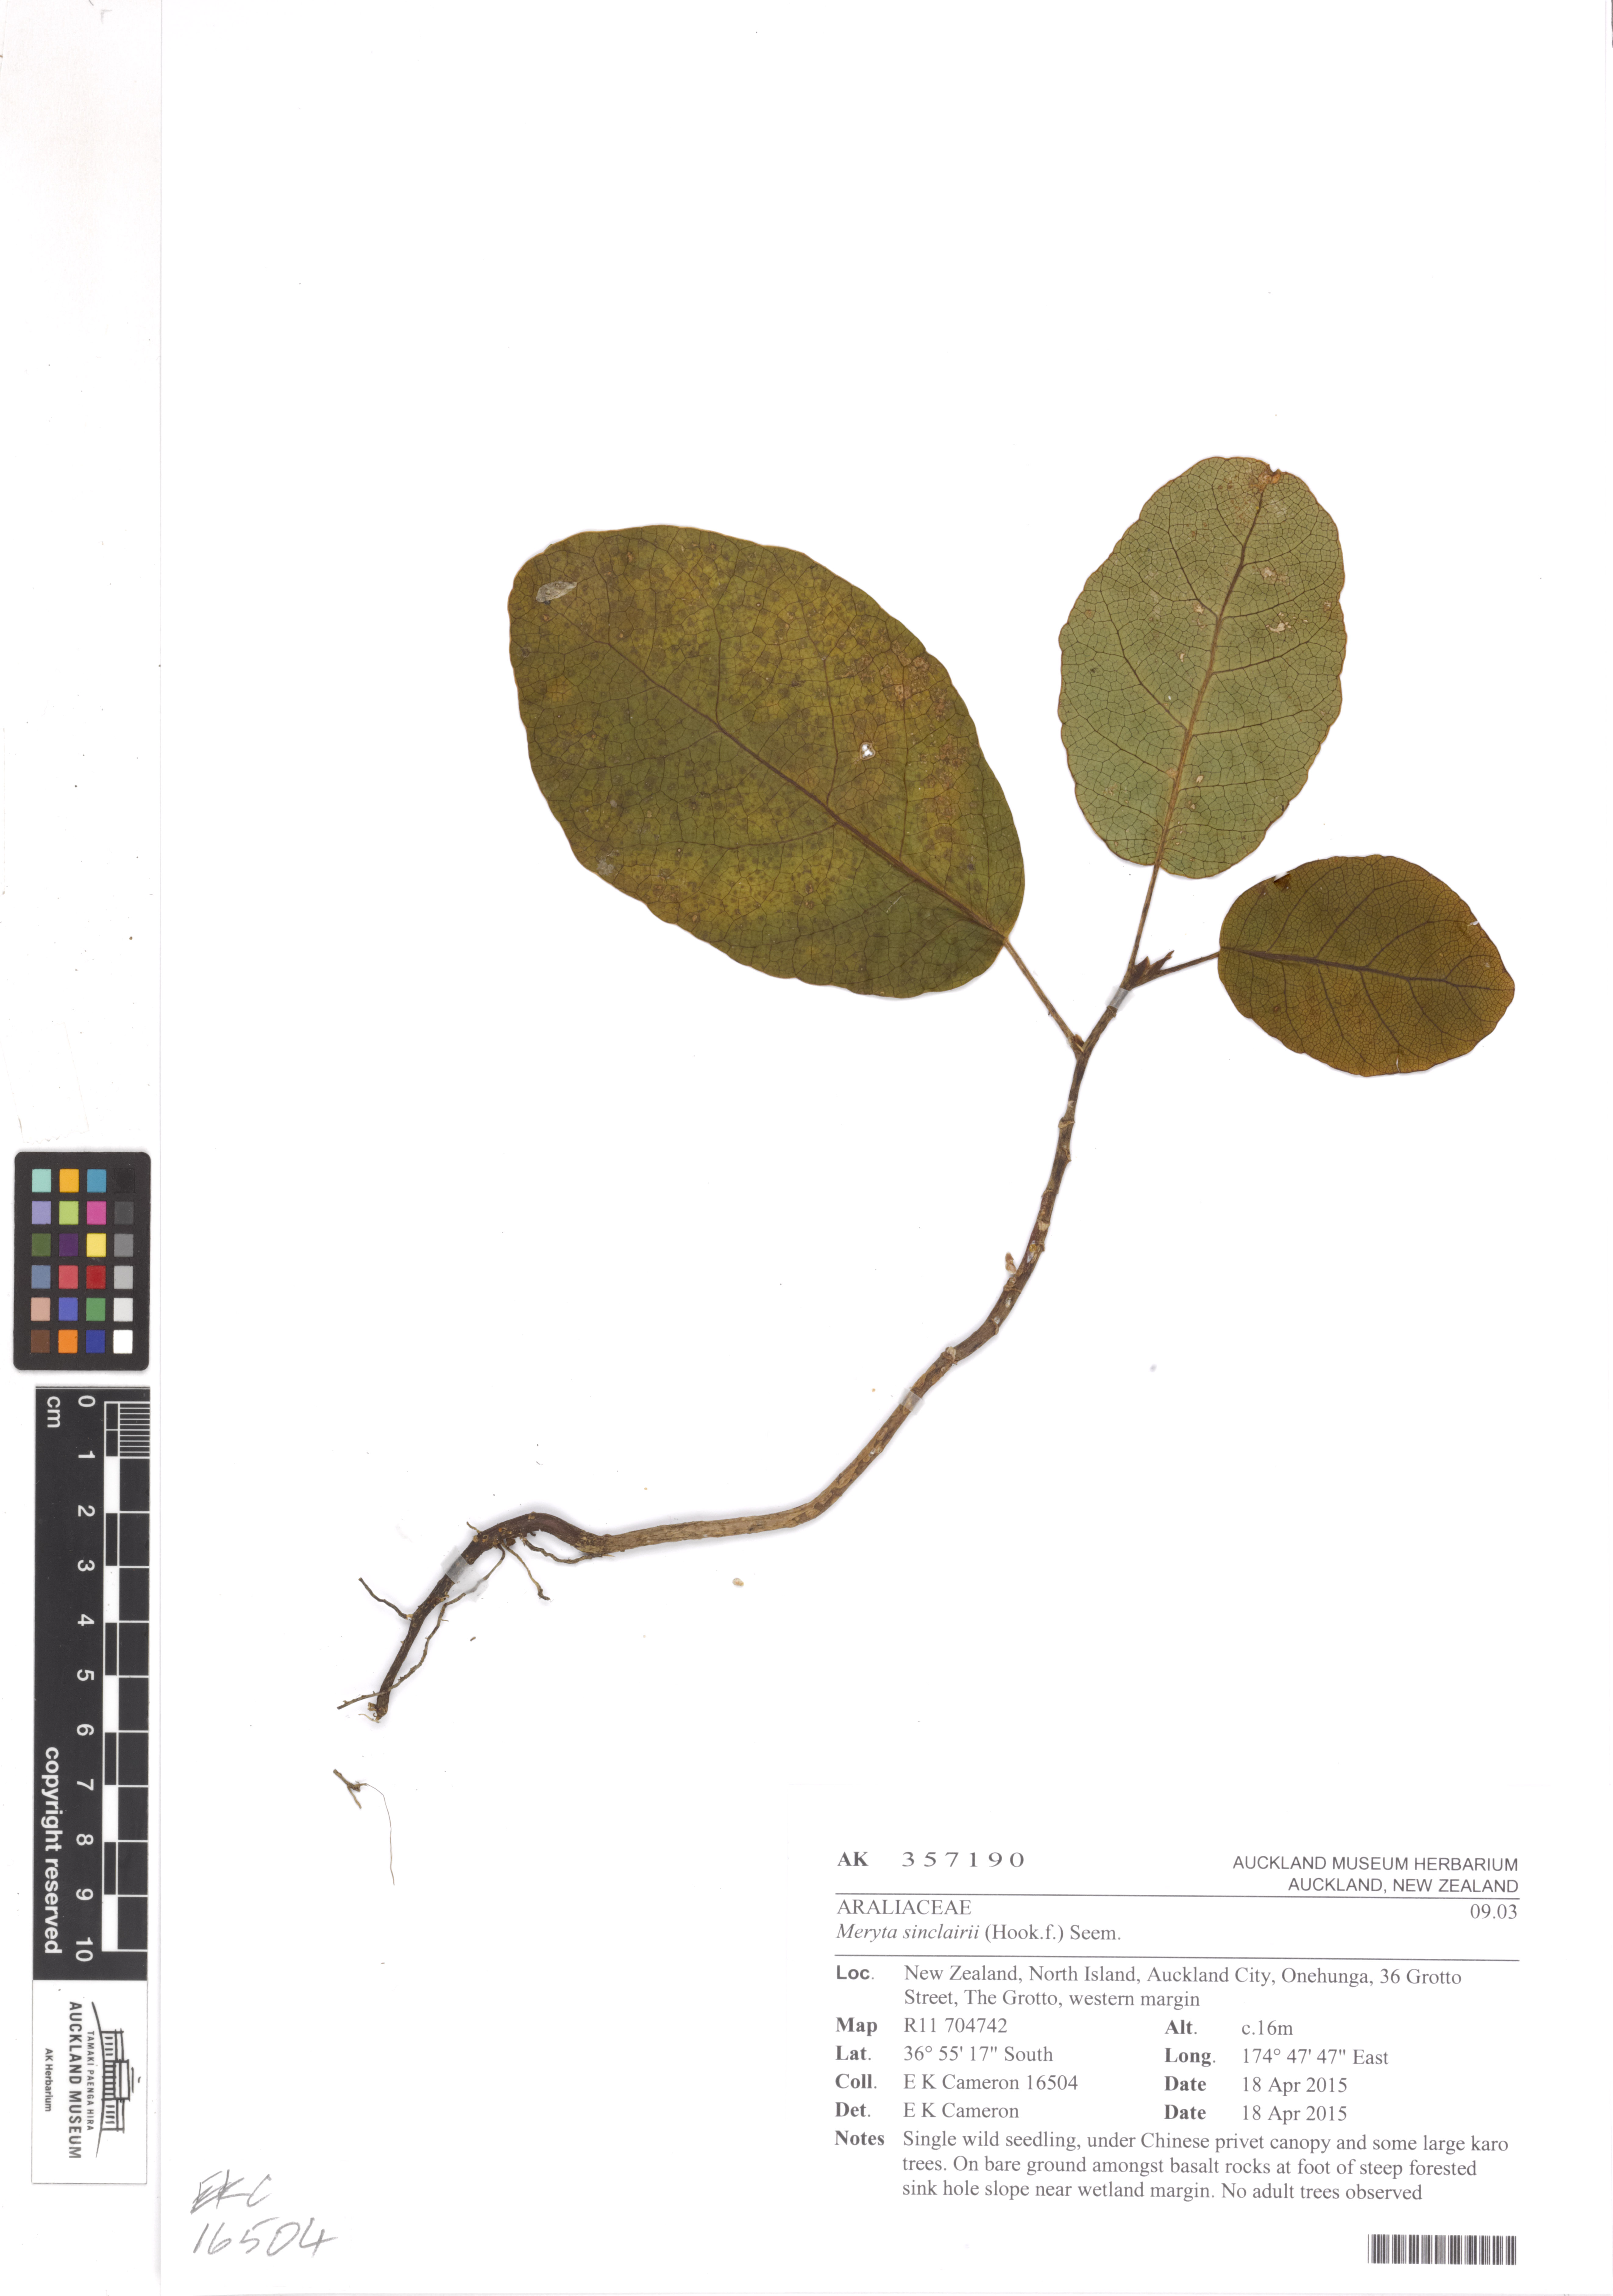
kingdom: Plantae
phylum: Tracheophyta
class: Magnoliopsida
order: Apiales
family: Araliaceae
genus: Meryta
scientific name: Meryta sinclairii
